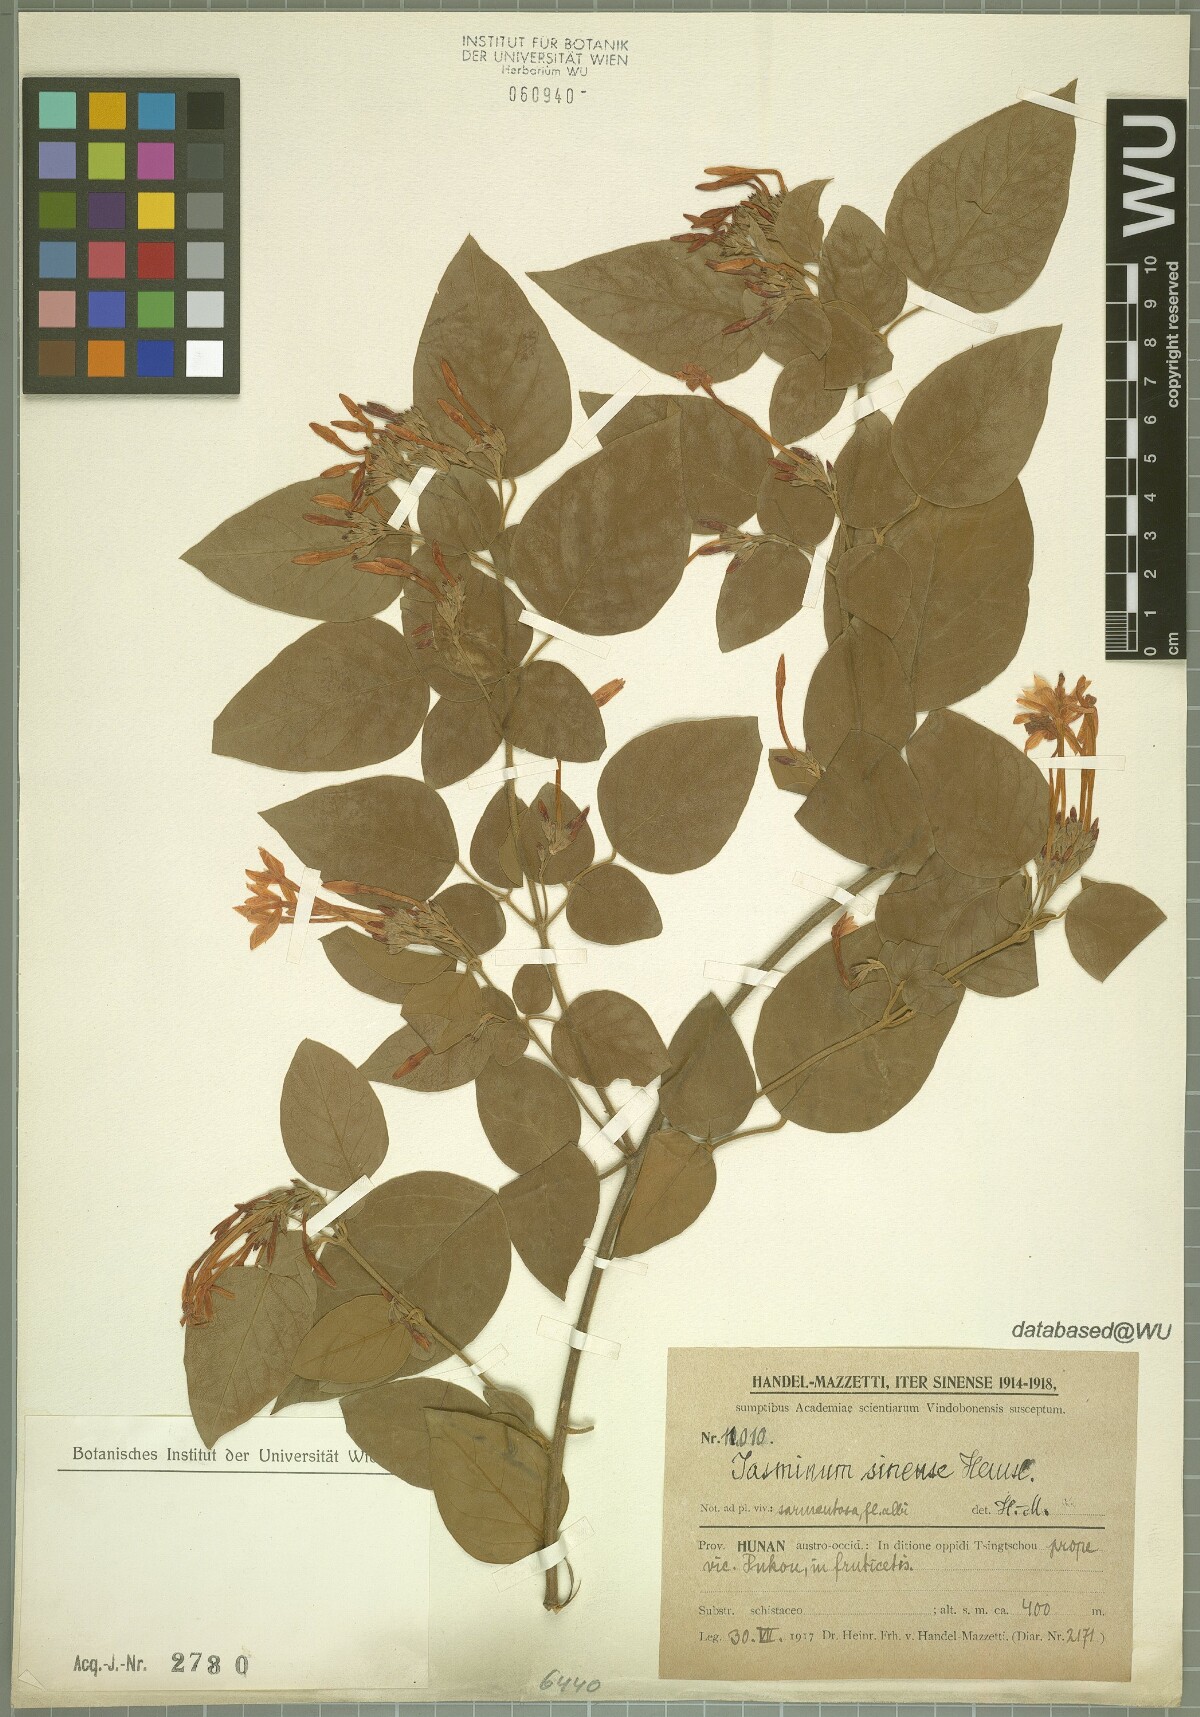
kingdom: Plantae
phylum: Tracheophyta
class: Magnoliopsida
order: Lamiales
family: Oleaceae
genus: Jasminum
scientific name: Jasminum sinense
